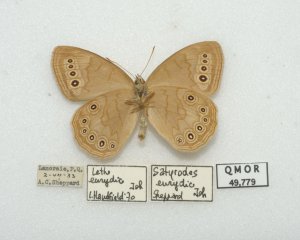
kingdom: Animalia
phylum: Arthropoda
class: Insecta
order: Lepidoptera
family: Nymphalidae
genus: Lethe
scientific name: Lethe eurydice
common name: Eyed Brown
